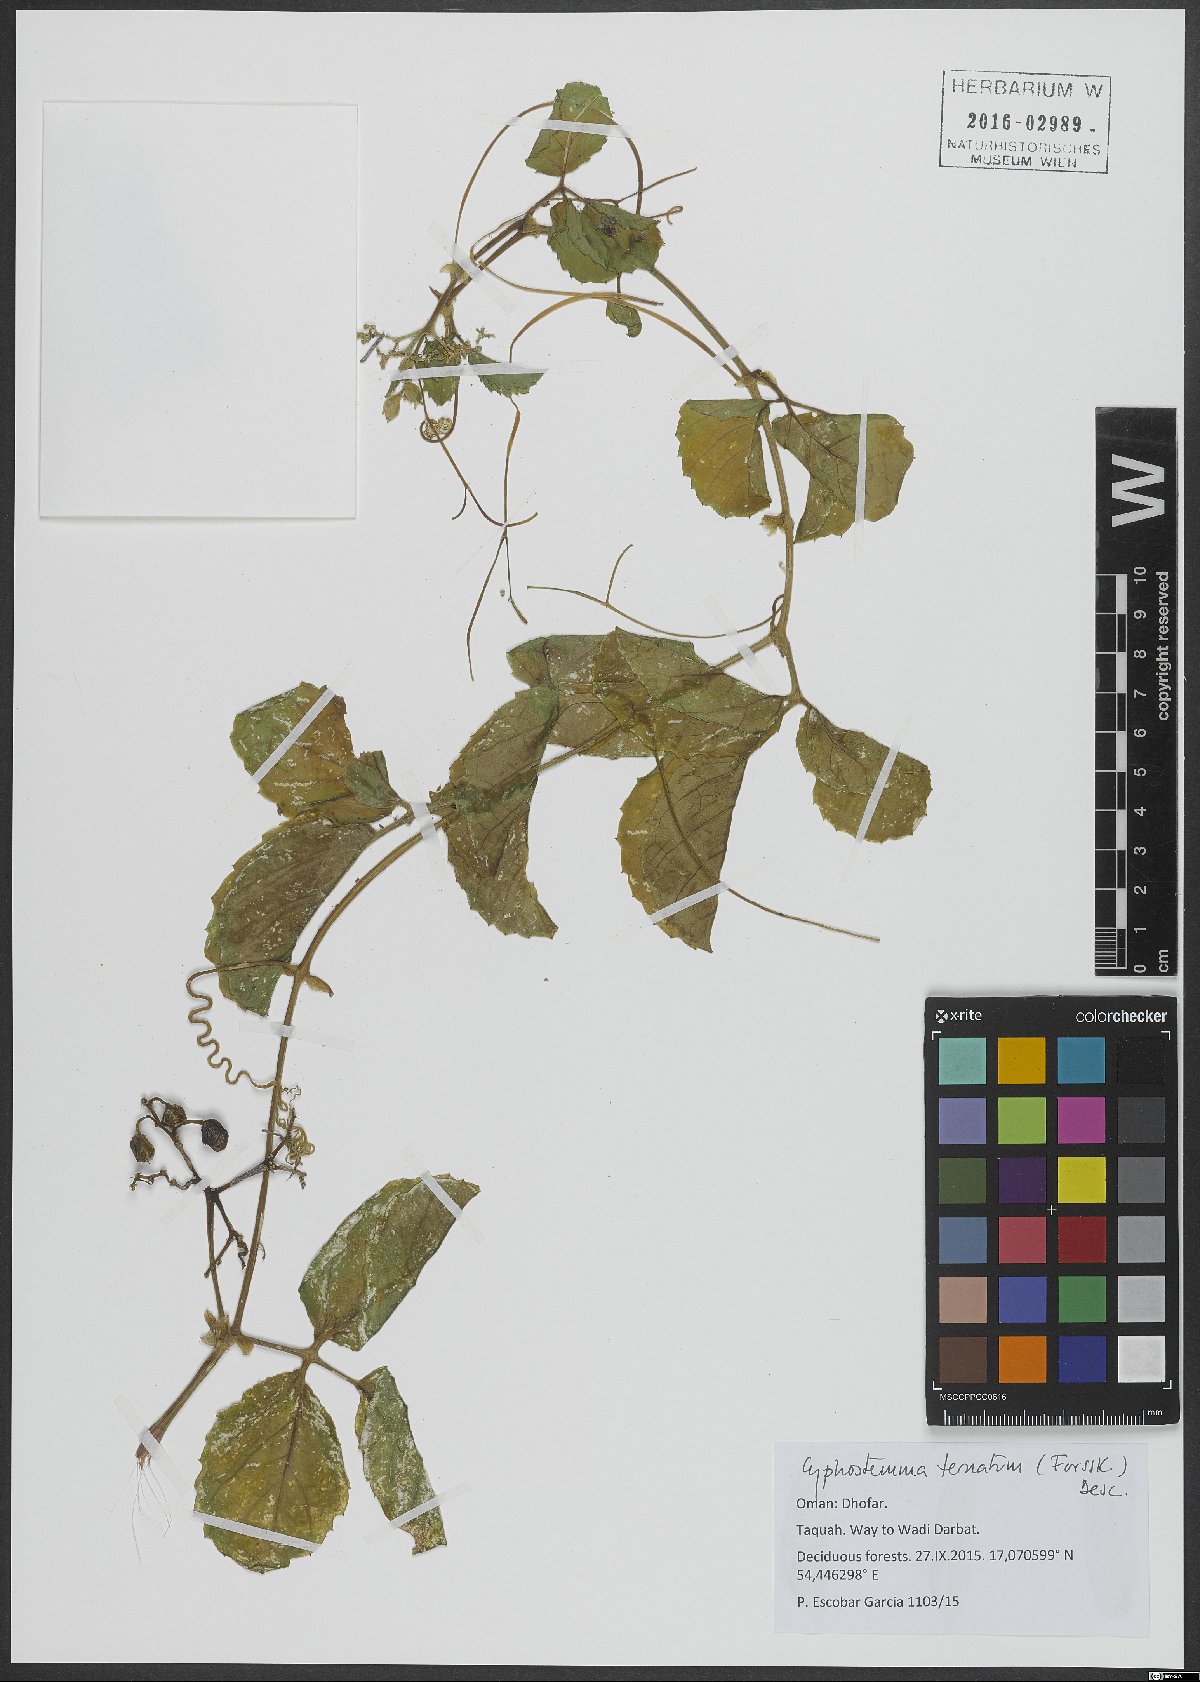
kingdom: Plantae
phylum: Tracheophyta
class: Magnoliopsida
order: Vitales
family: Vitaceae
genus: Cyphostemma
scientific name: Cyphostemma ternatum
